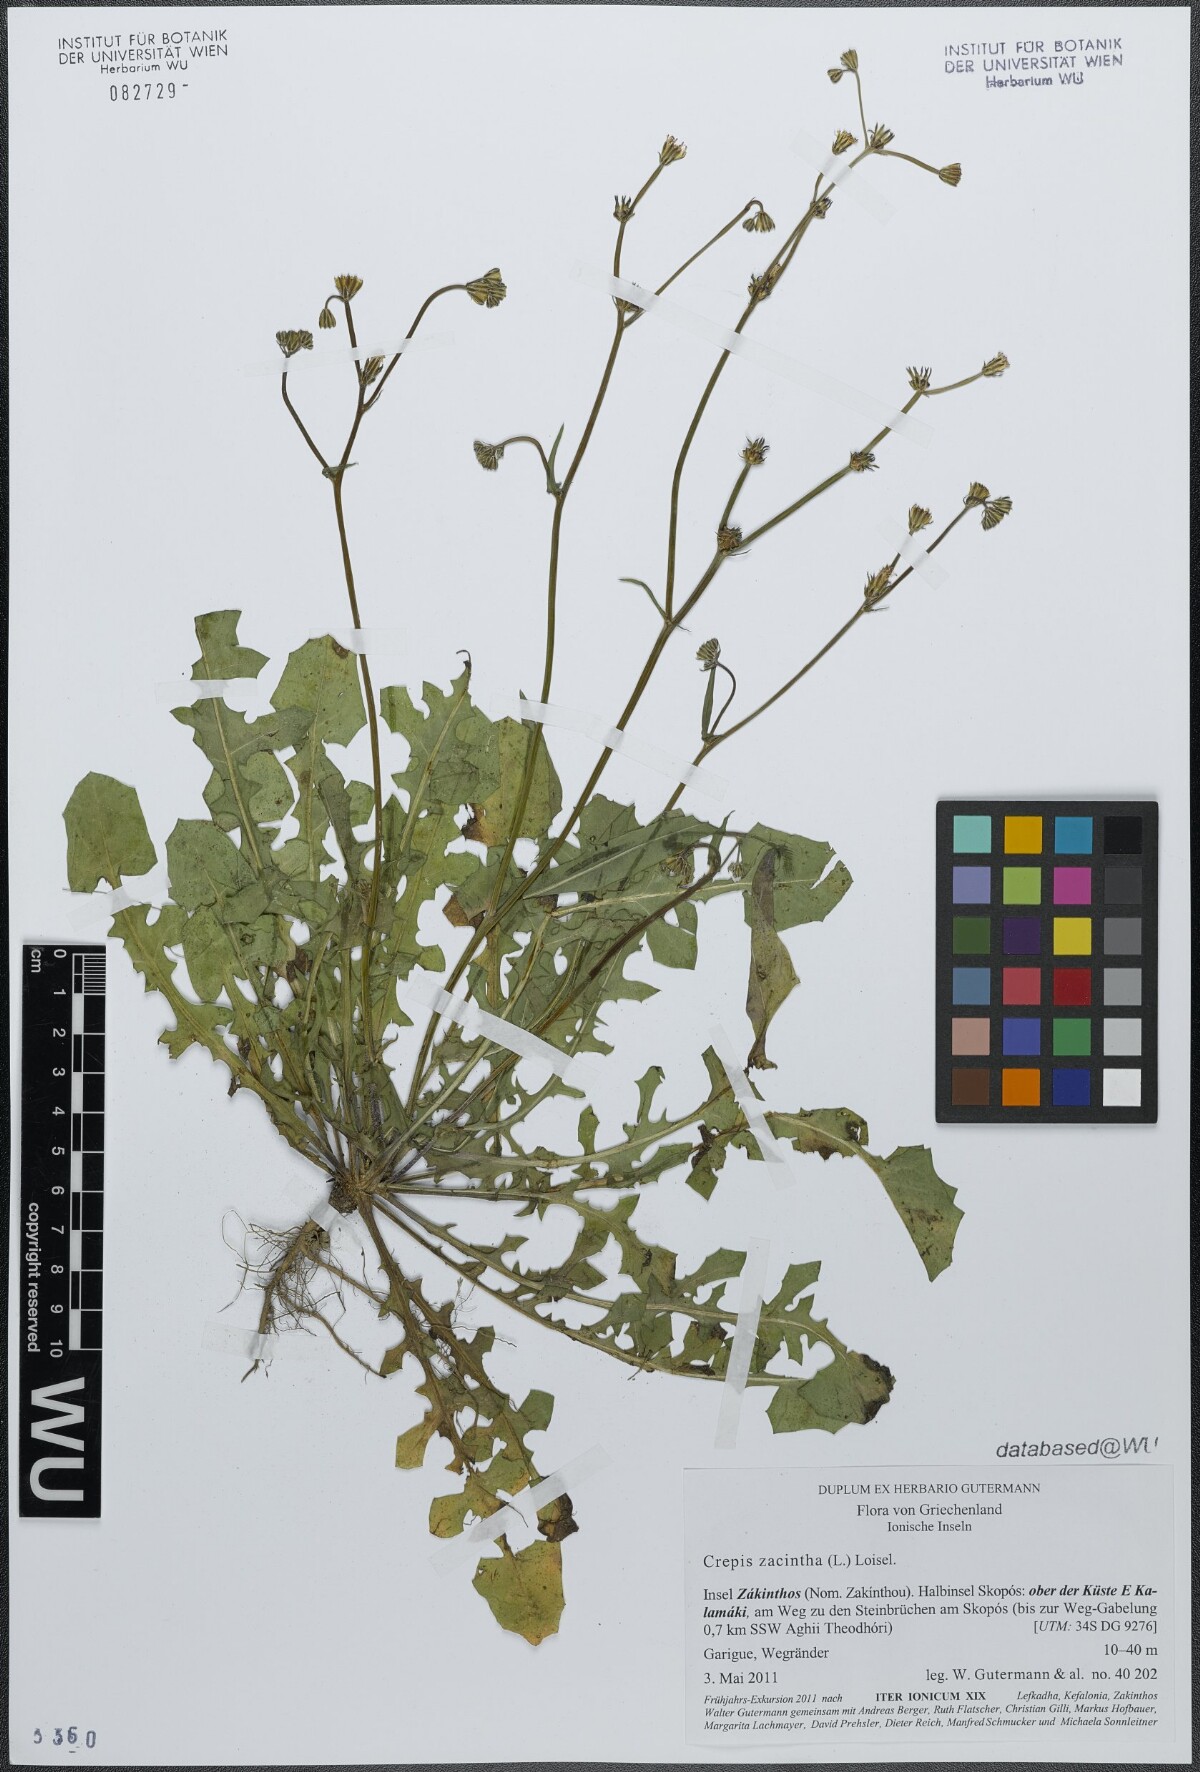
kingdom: Plantae
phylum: Tracheophyta
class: Magnoliopsida
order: Asterales
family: Asteraceae
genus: Crepis
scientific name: Crepis zacintha
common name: Striped hawksbeard
